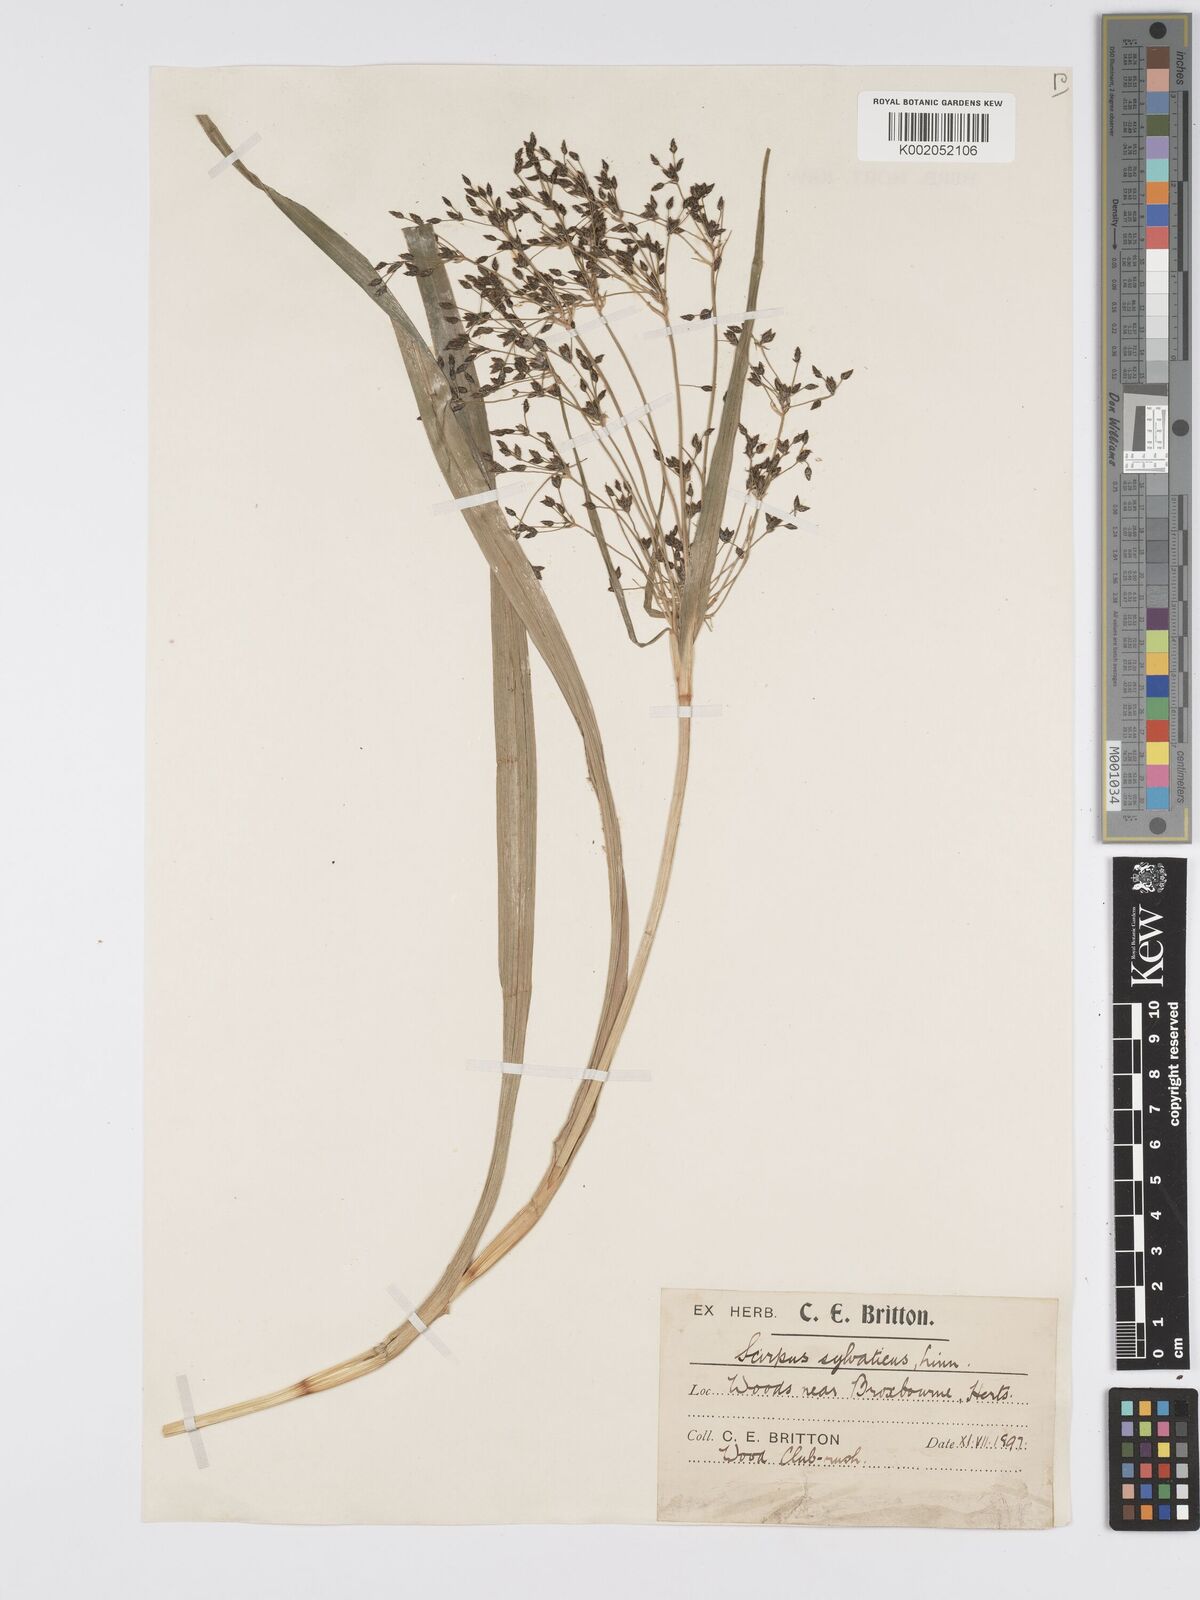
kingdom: Plantae
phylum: Tracheophyta
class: Liliopsida
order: Poales
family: Cyperaceae
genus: Scirpus
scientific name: Scirpus sylvaticus
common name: Wood club-rush
